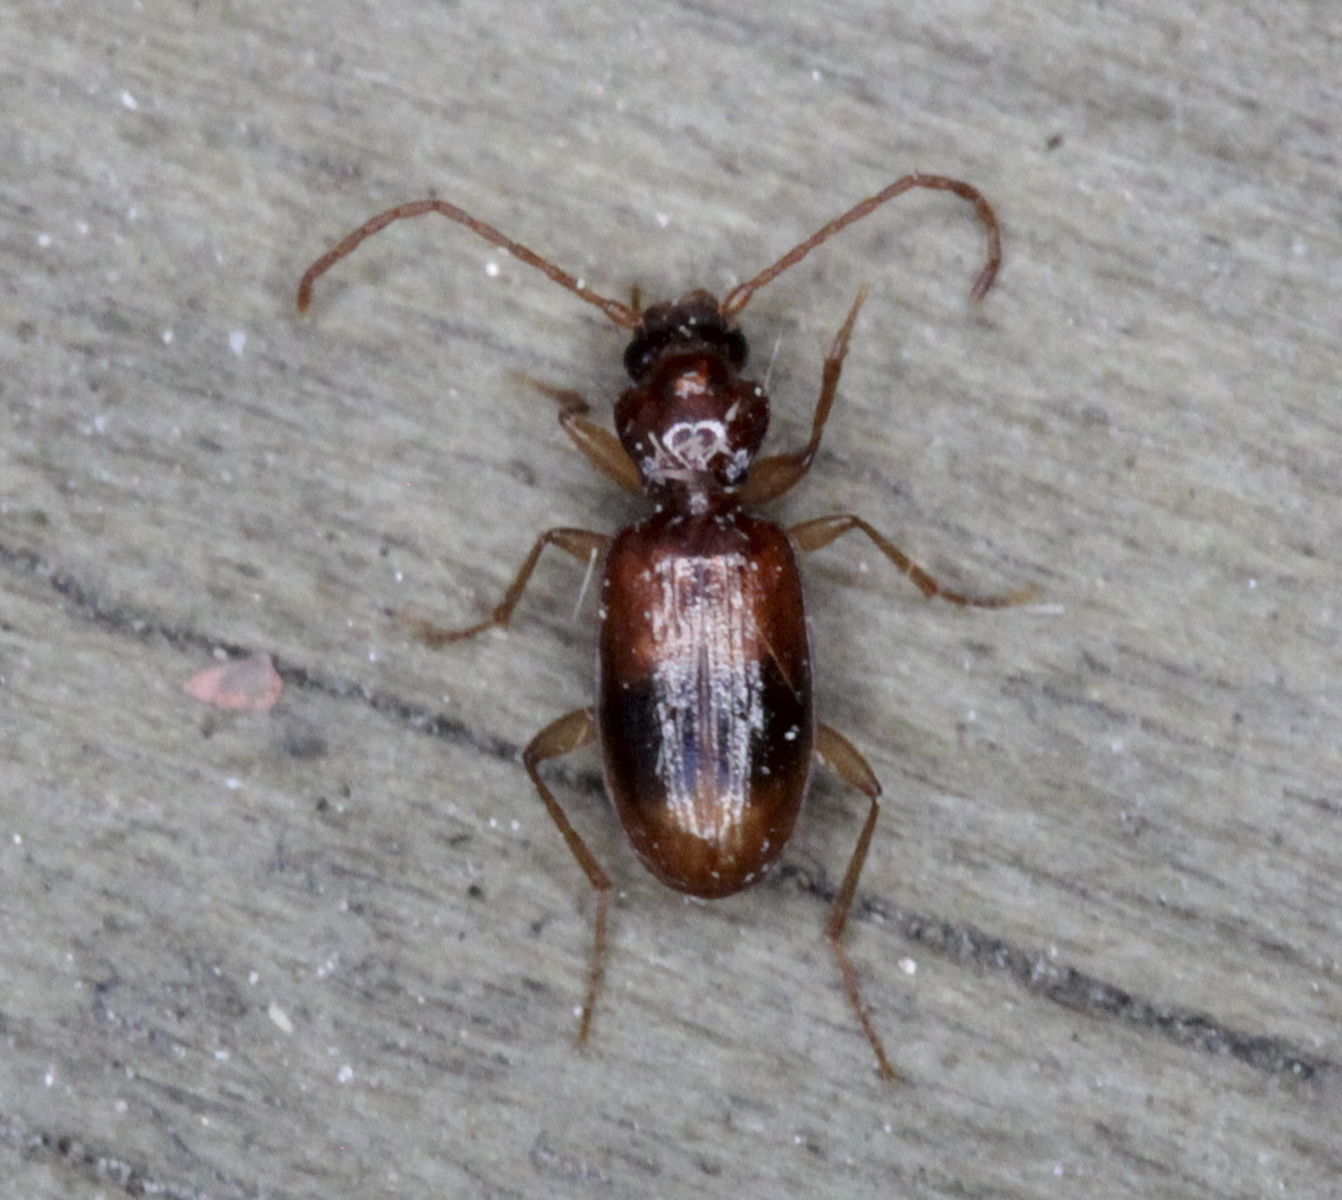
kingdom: Animalia
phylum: Arthropoda
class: Insecta
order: Coleoptera
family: Carabidae
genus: Blemus
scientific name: Blemus discus
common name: Discus riverbank ground beetle
